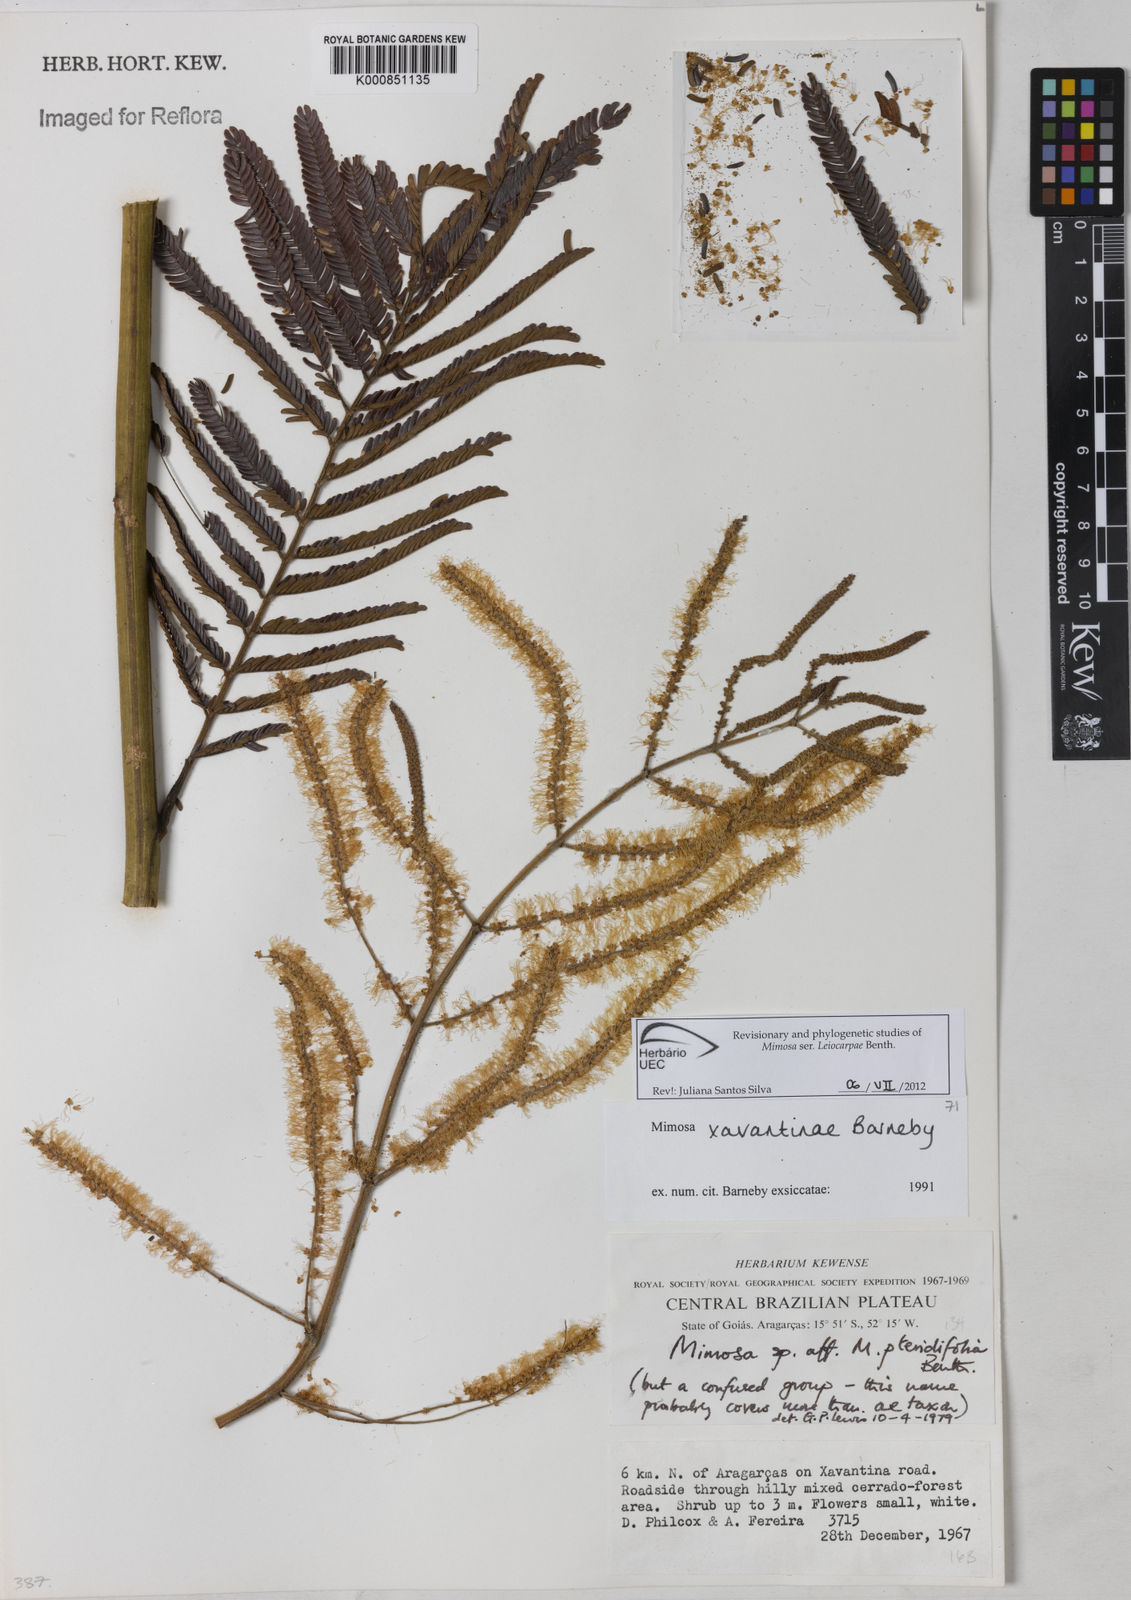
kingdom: Plantae
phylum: Tracheophyta
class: Magnoliopsida
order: Fabales
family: Fabaceae
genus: Mimosa
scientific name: Mimosa apodocarpa
